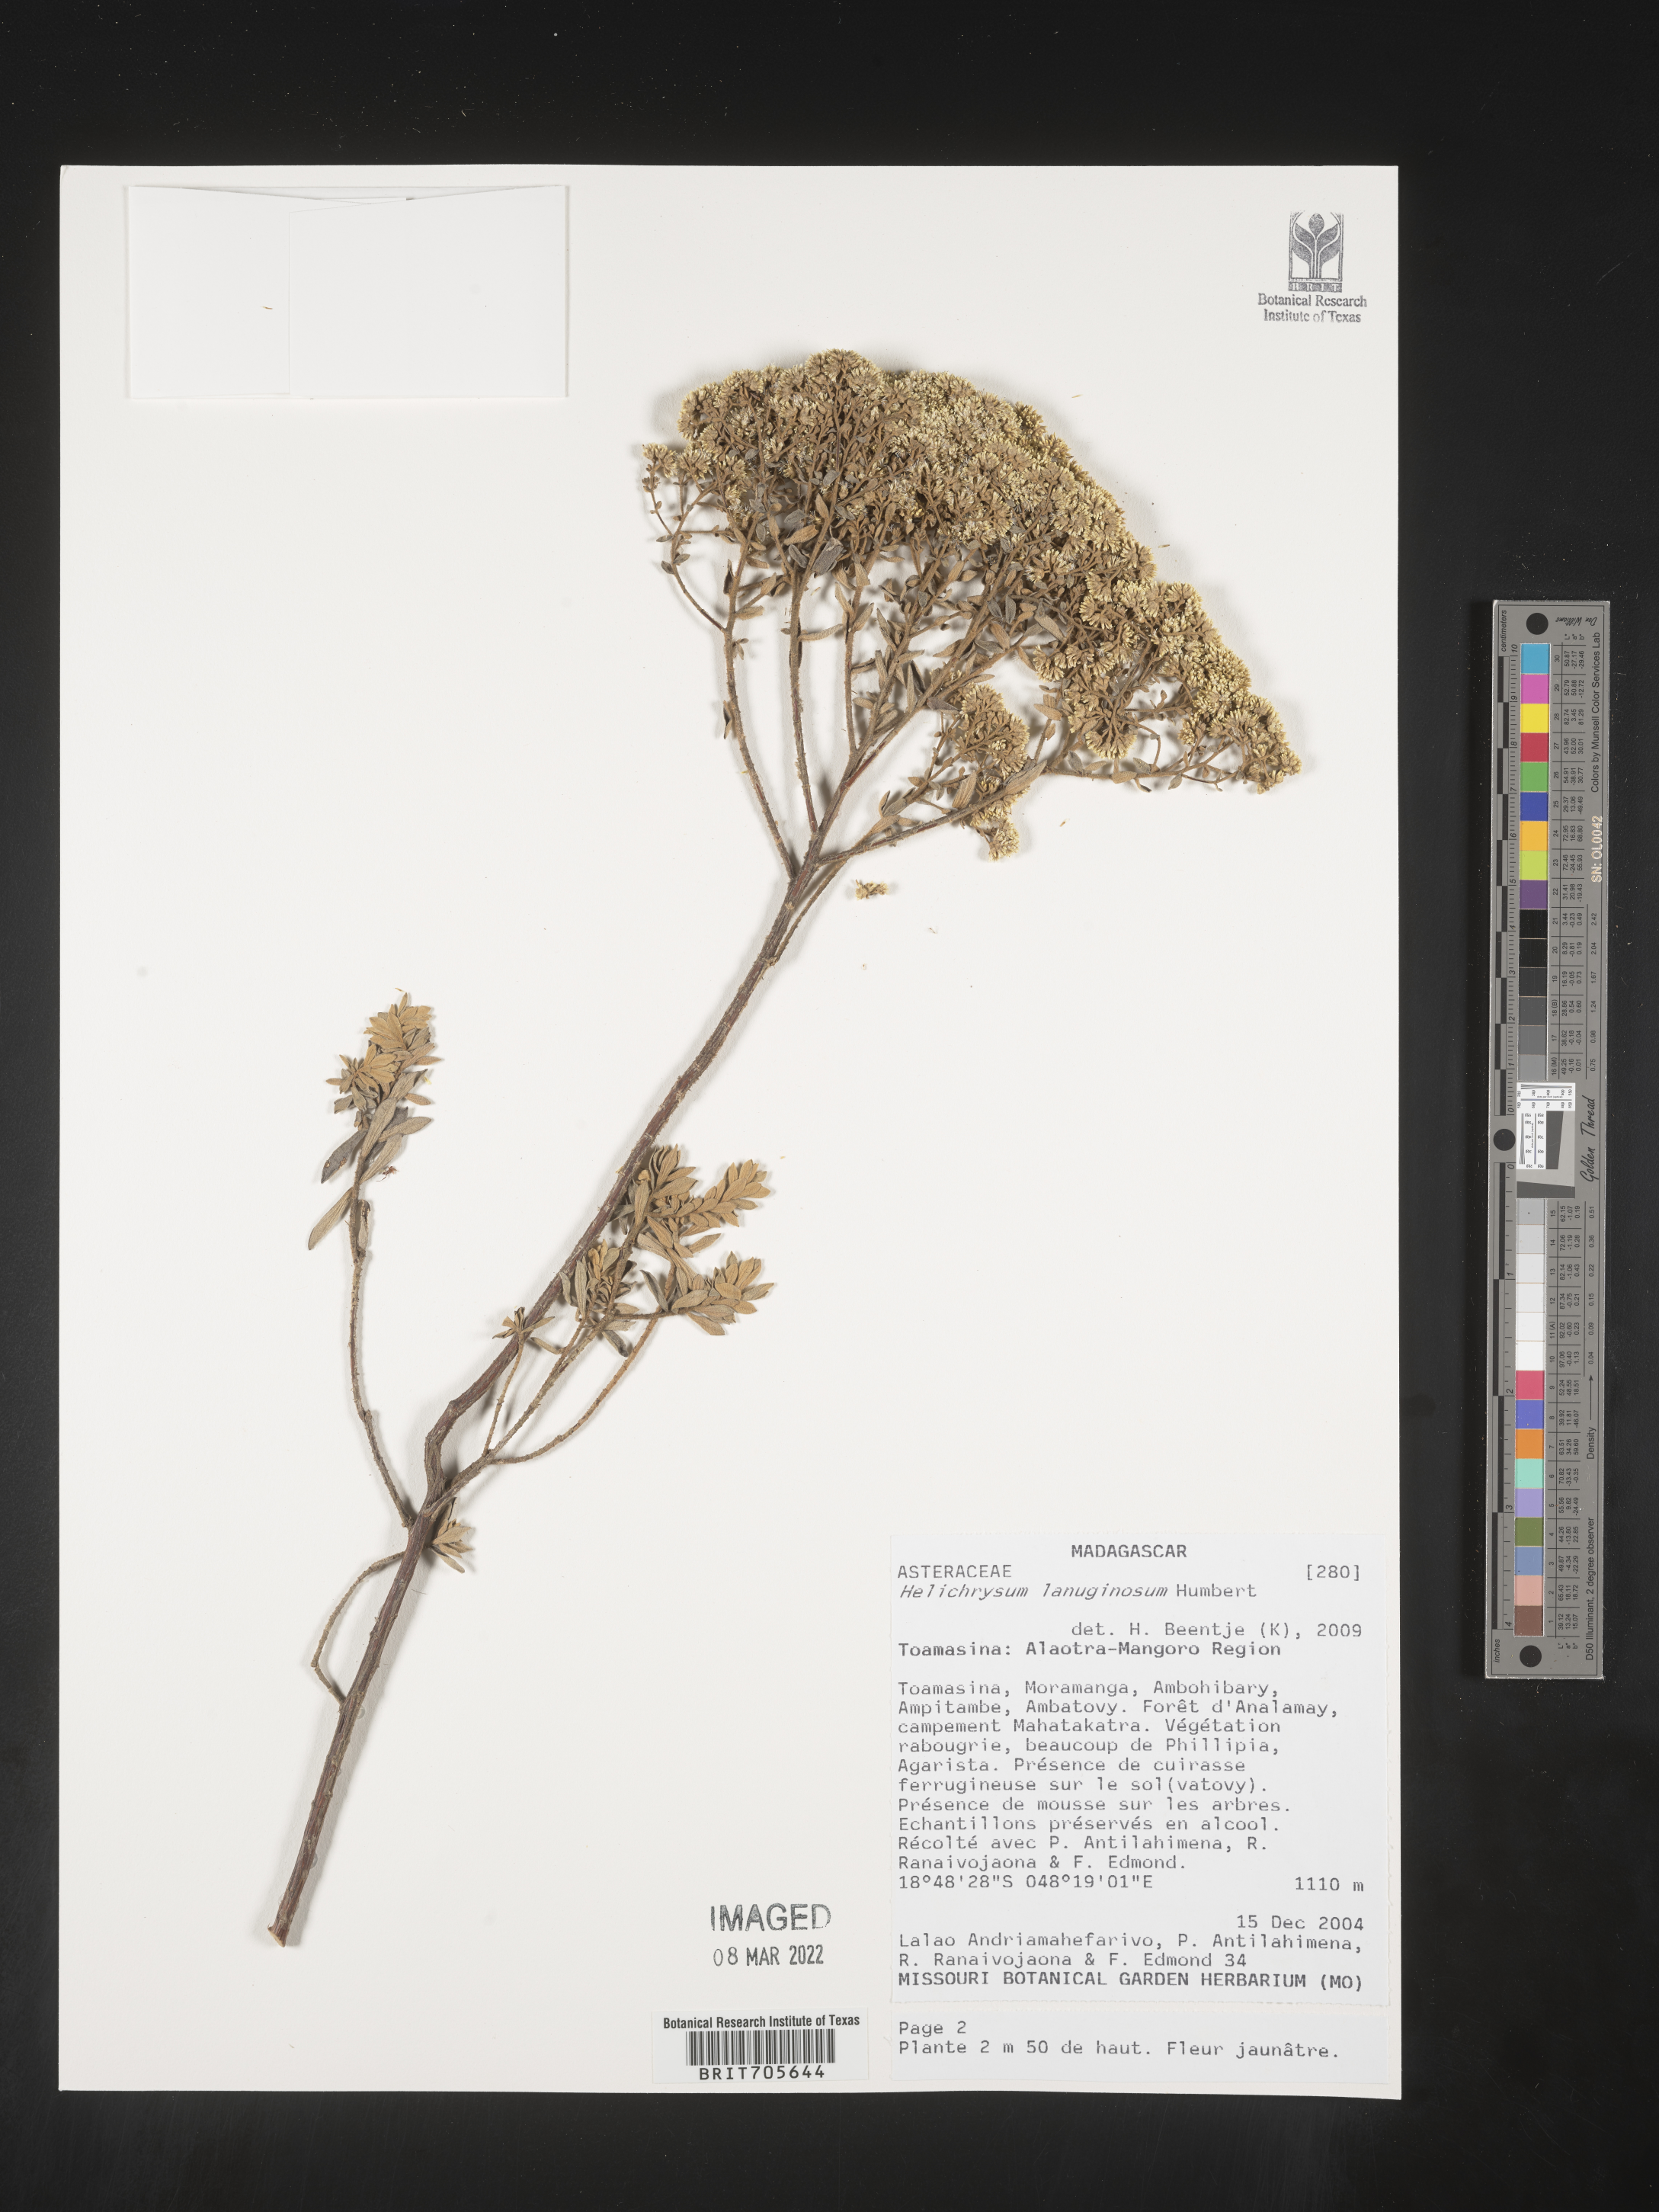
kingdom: Plantae
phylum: Tracheophyta
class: Magnoliopsida
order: Asterales
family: Asteraceae
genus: Helichrysum
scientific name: Helichrysum
